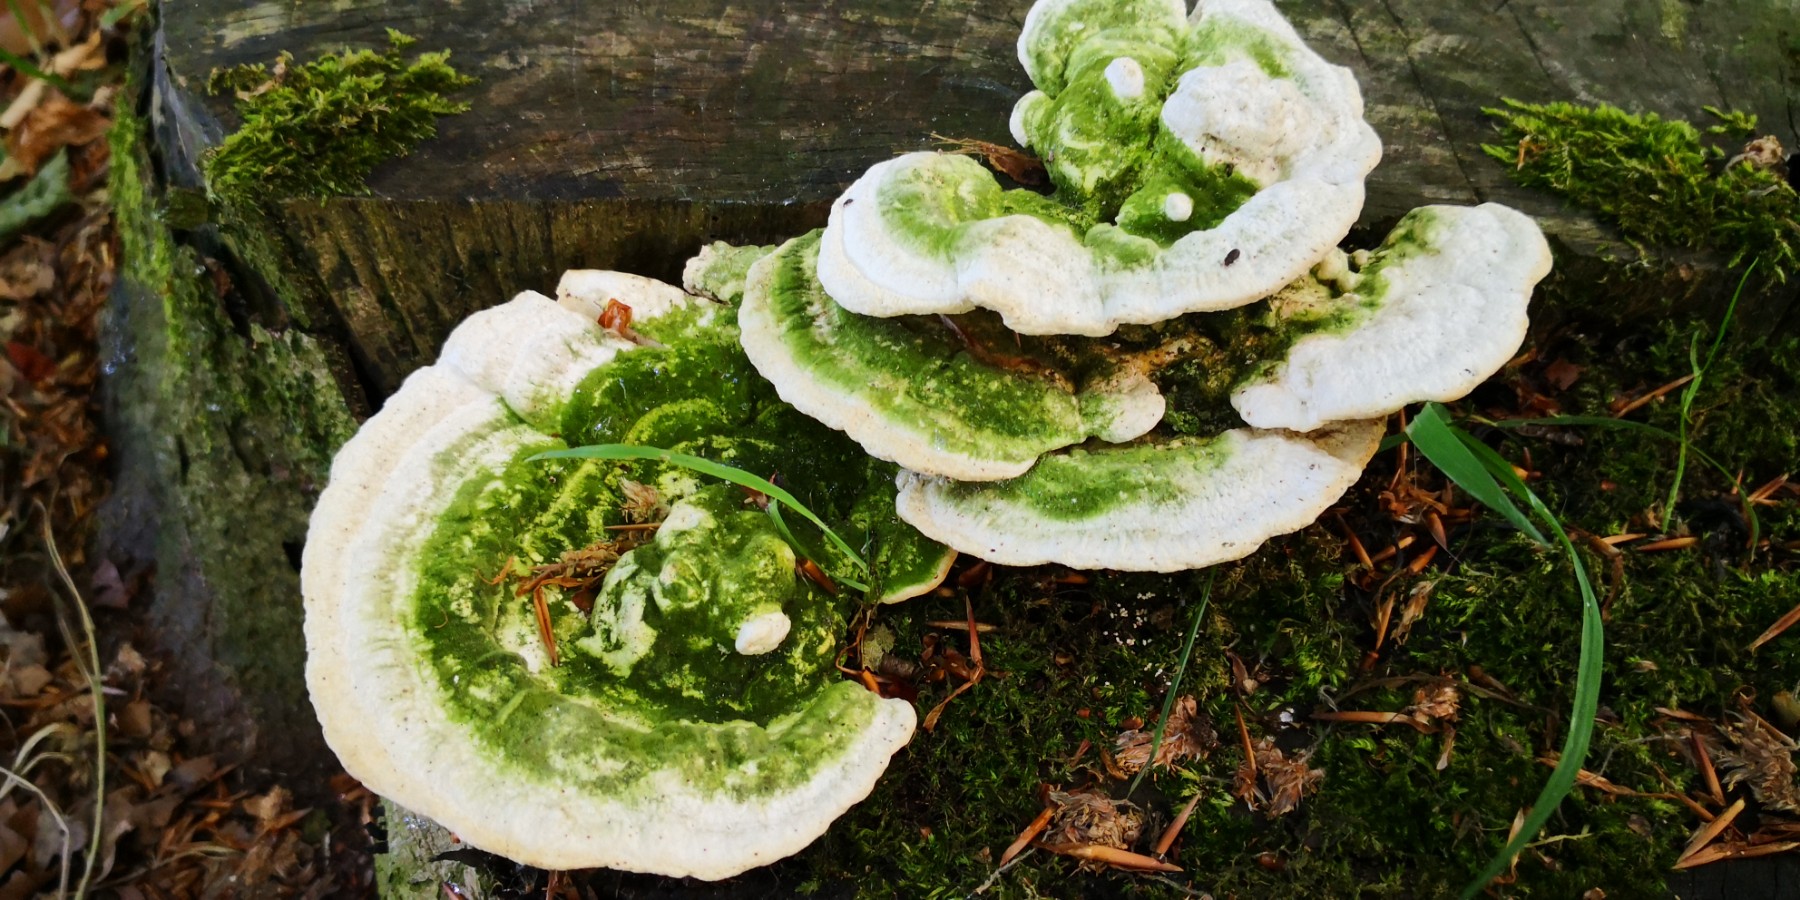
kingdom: Fungi
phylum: Basidiomycota
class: Agaricomycetes
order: Polyporales
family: Polyporaceae
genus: Trametes
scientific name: Trametes gibbosa
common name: puklet læderporesvamp
